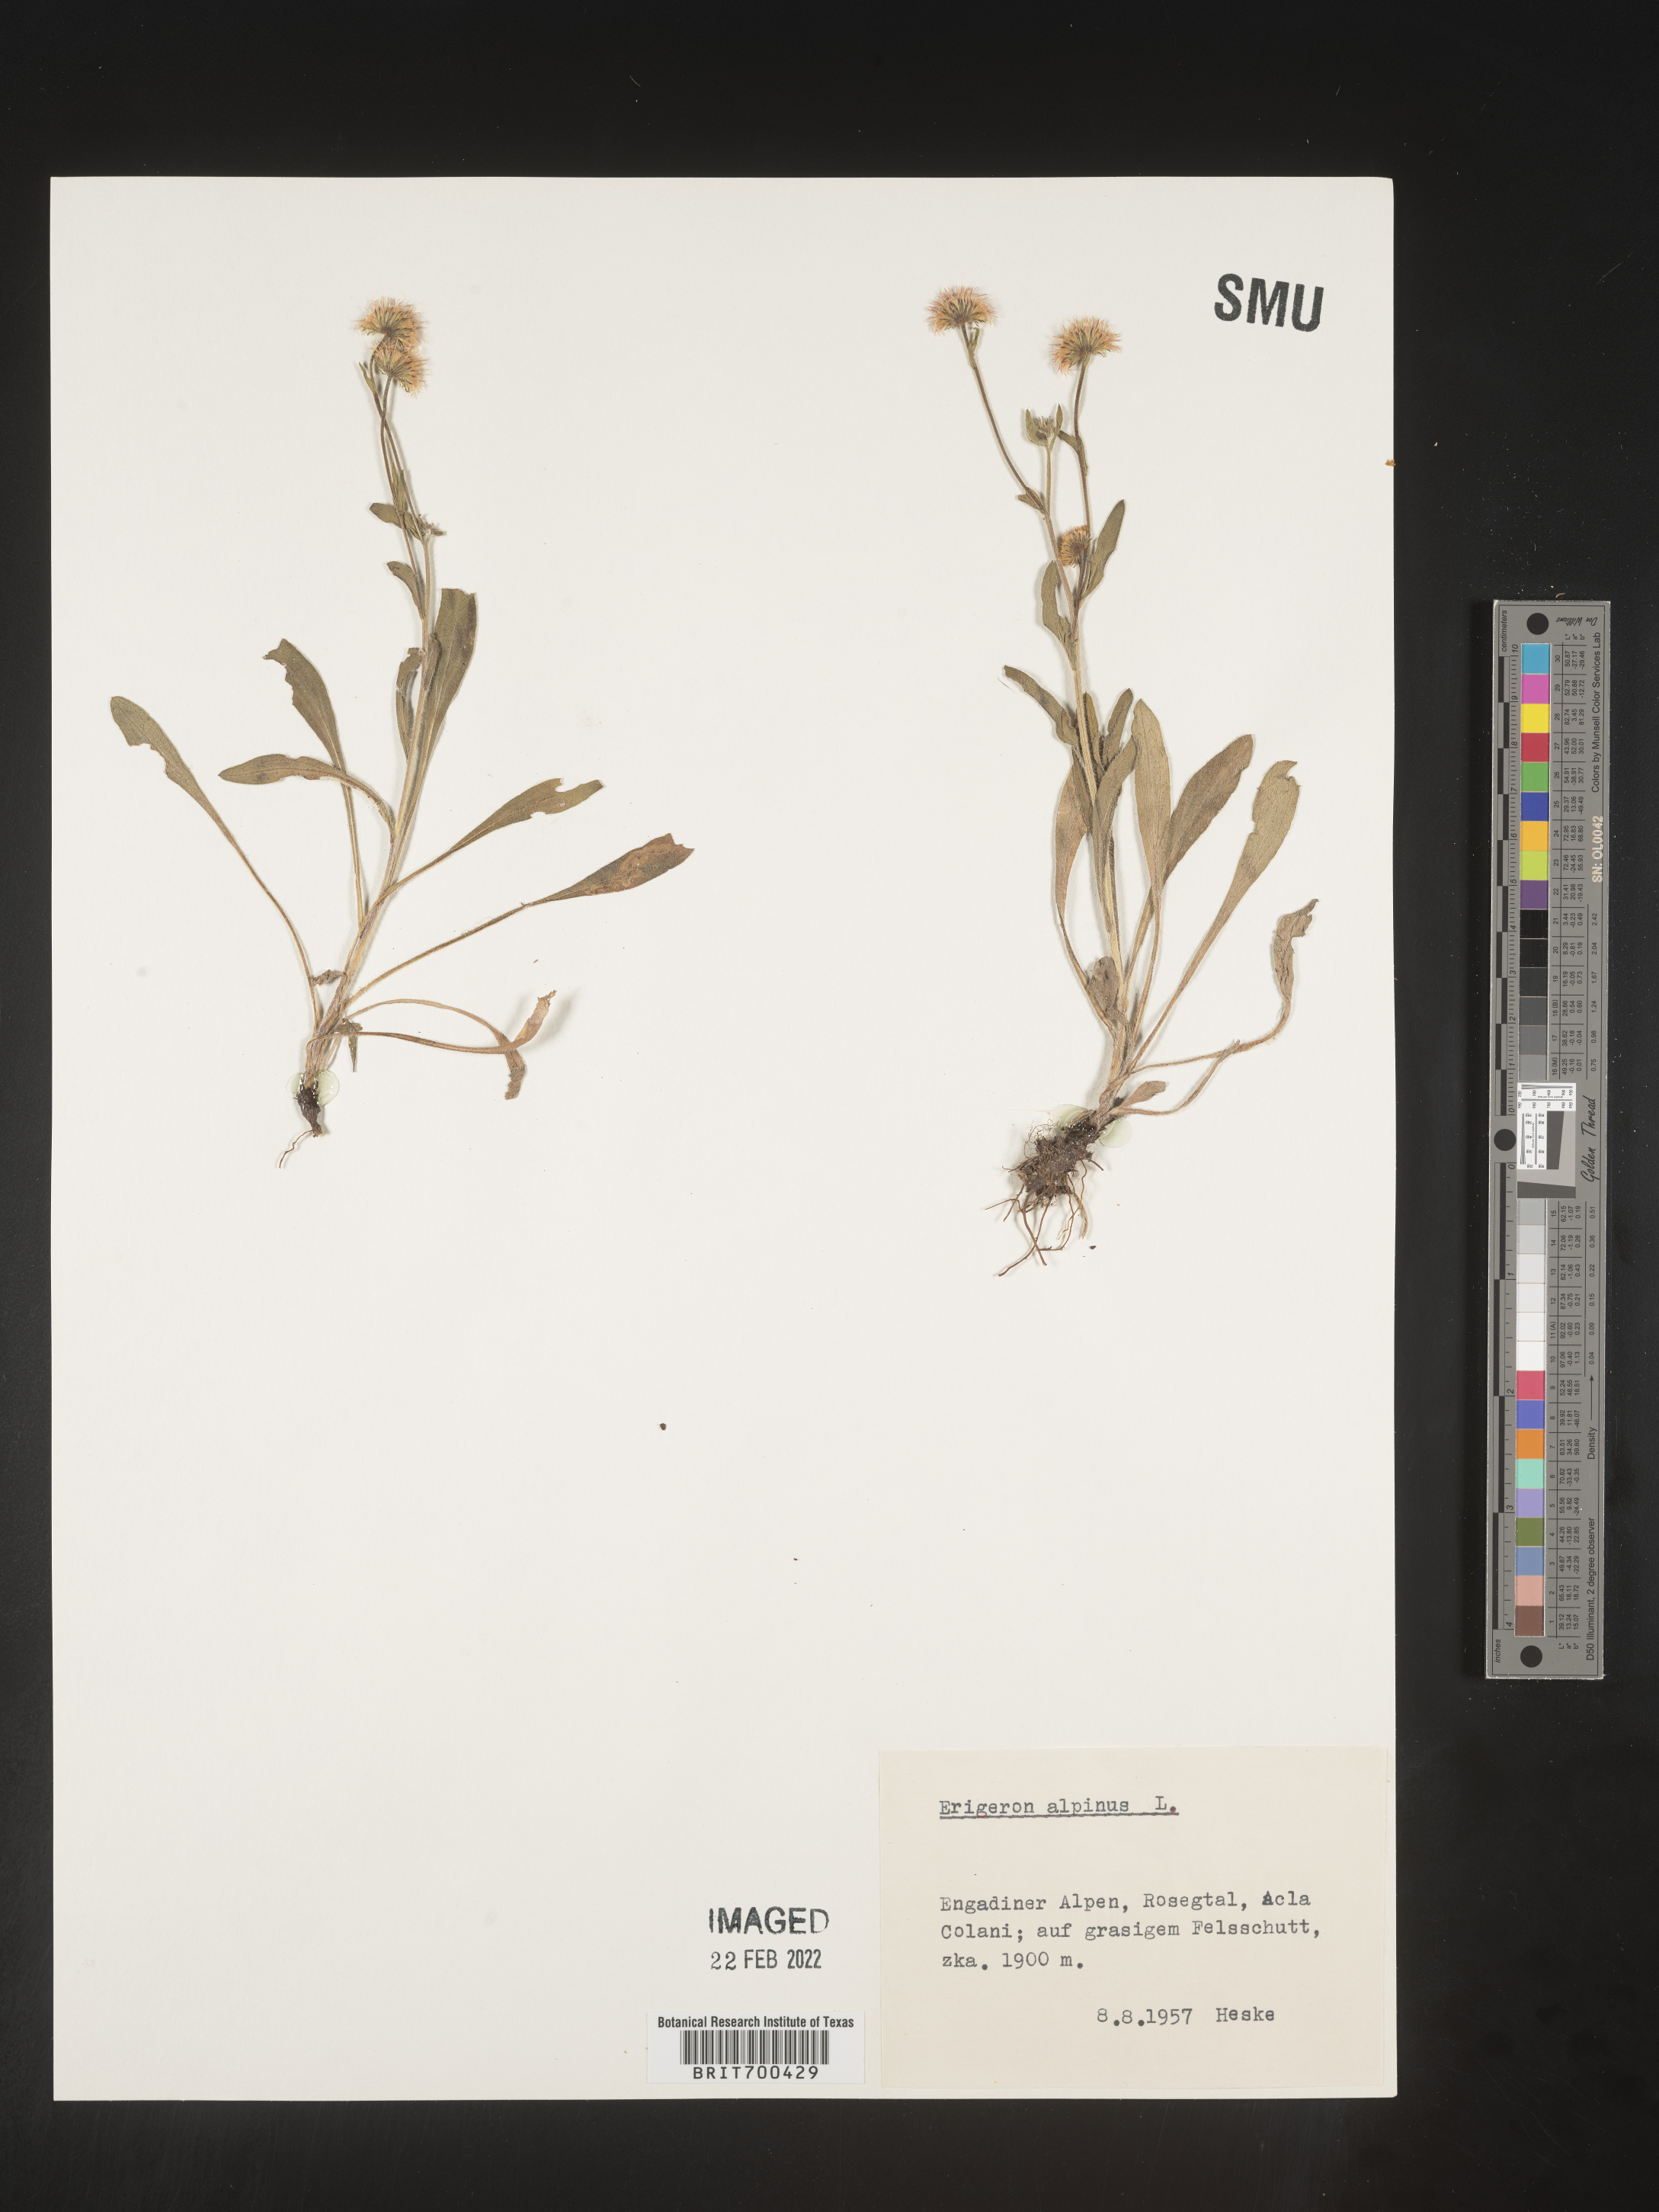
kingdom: Plantae
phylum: Tracheophyta
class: Magnoliopsida
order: Asterales
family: Asteraceae
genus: Erigeron
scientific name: Erigeron
